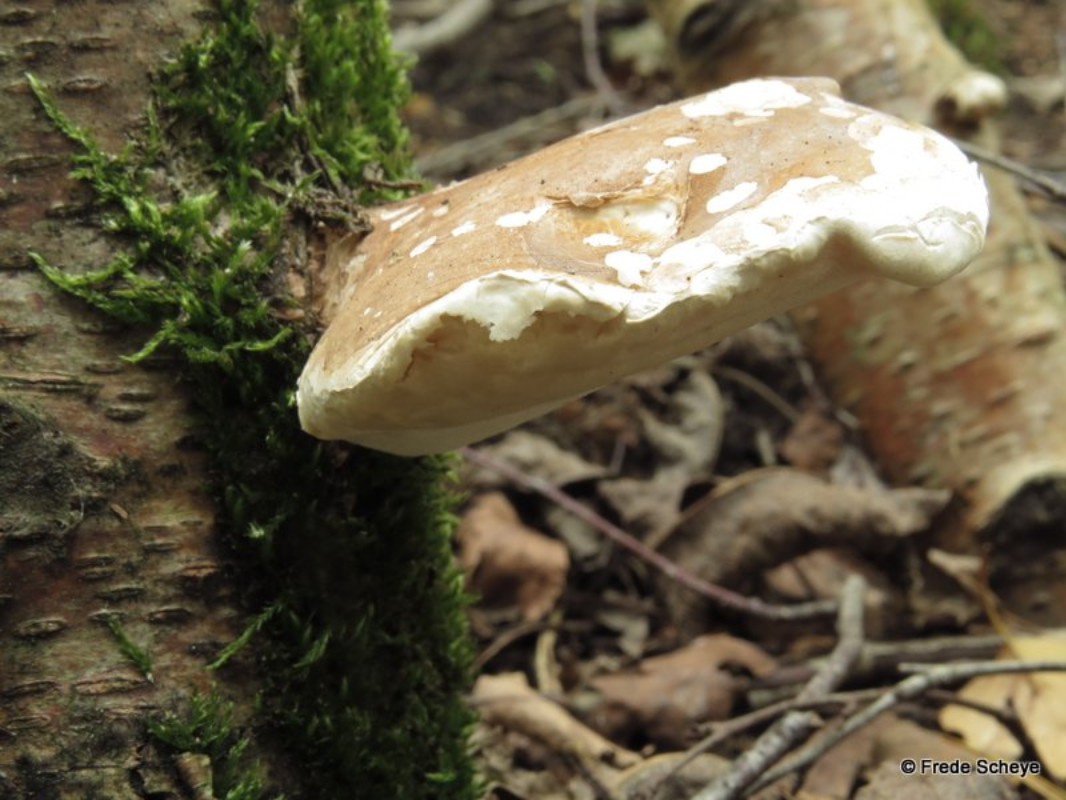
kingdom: Fungi
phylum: Basidiomycota
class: Agaricomycetes
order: Polyporales
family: Fomitopsidaceae
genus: Fomitopsis
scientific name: Fomitopsis betulina
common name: birkeporesvamp
